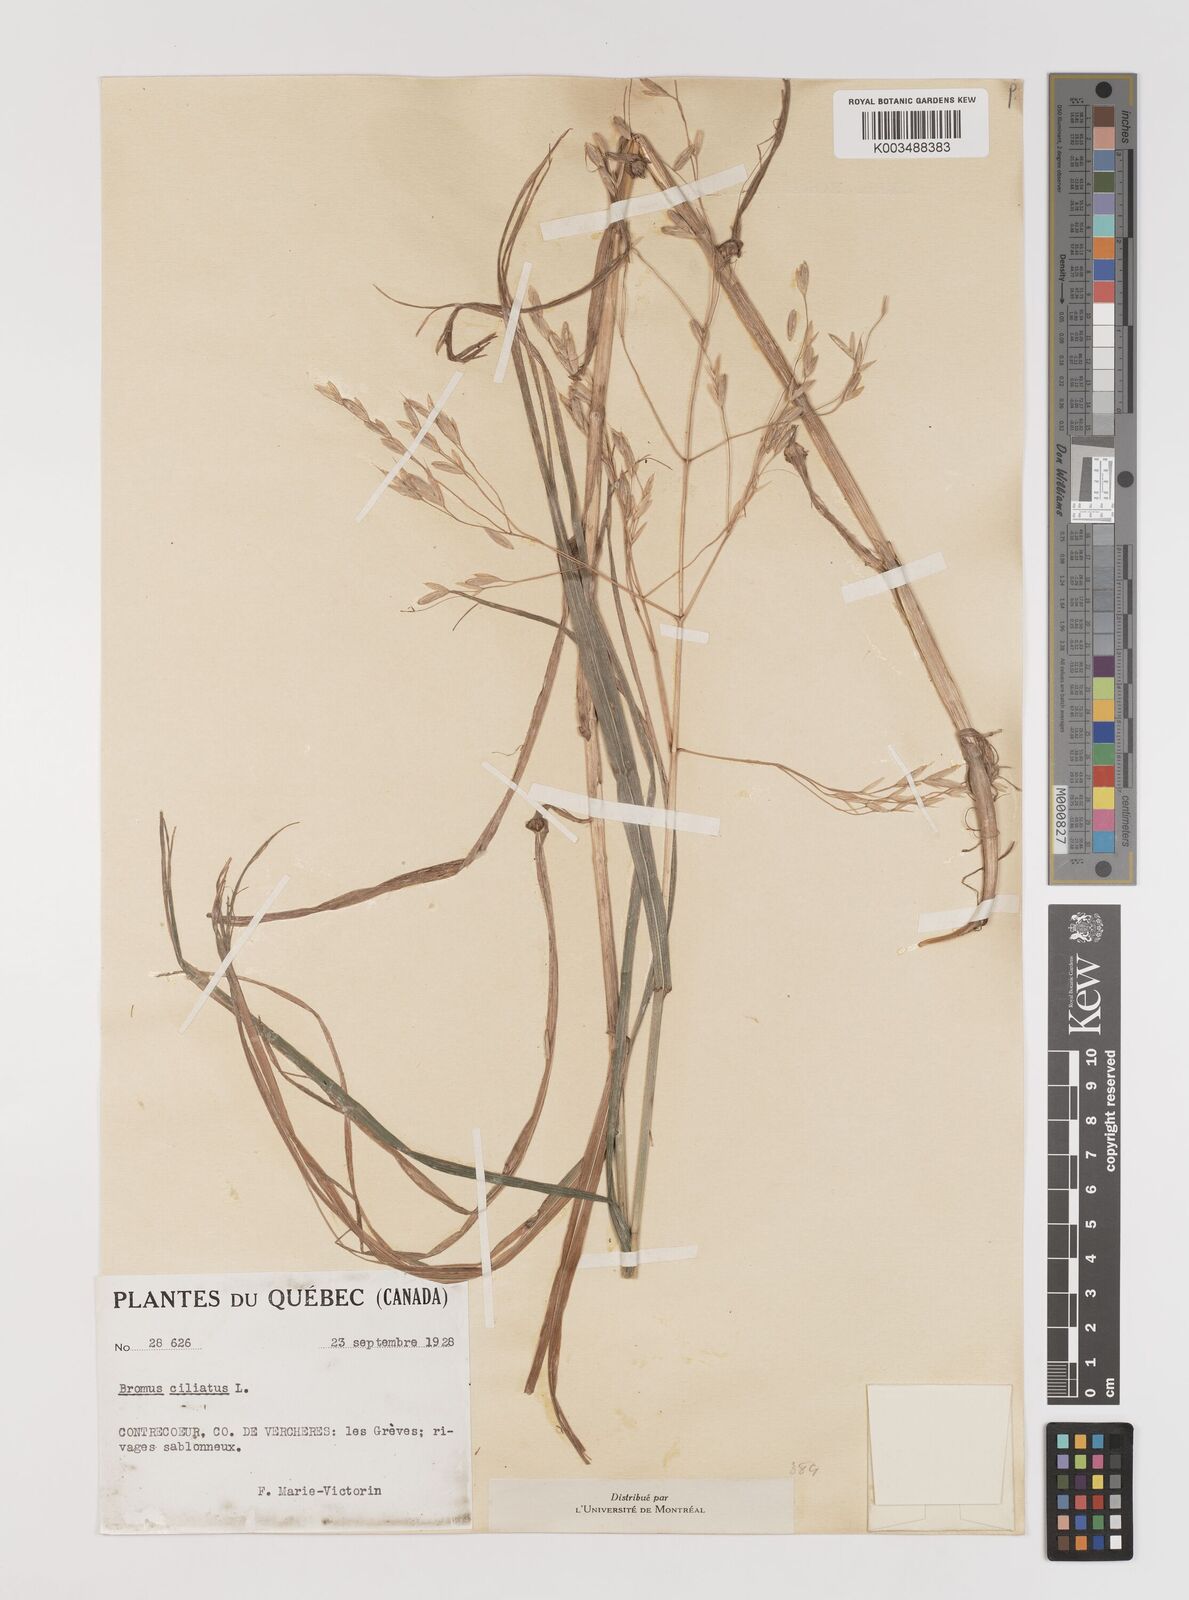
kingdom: Plantae
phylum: Tracheophyta
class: Liliopsida
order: Poales
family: Poaceae
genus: Bromus
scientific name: Bromus ciliatus
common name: Fringe brome
